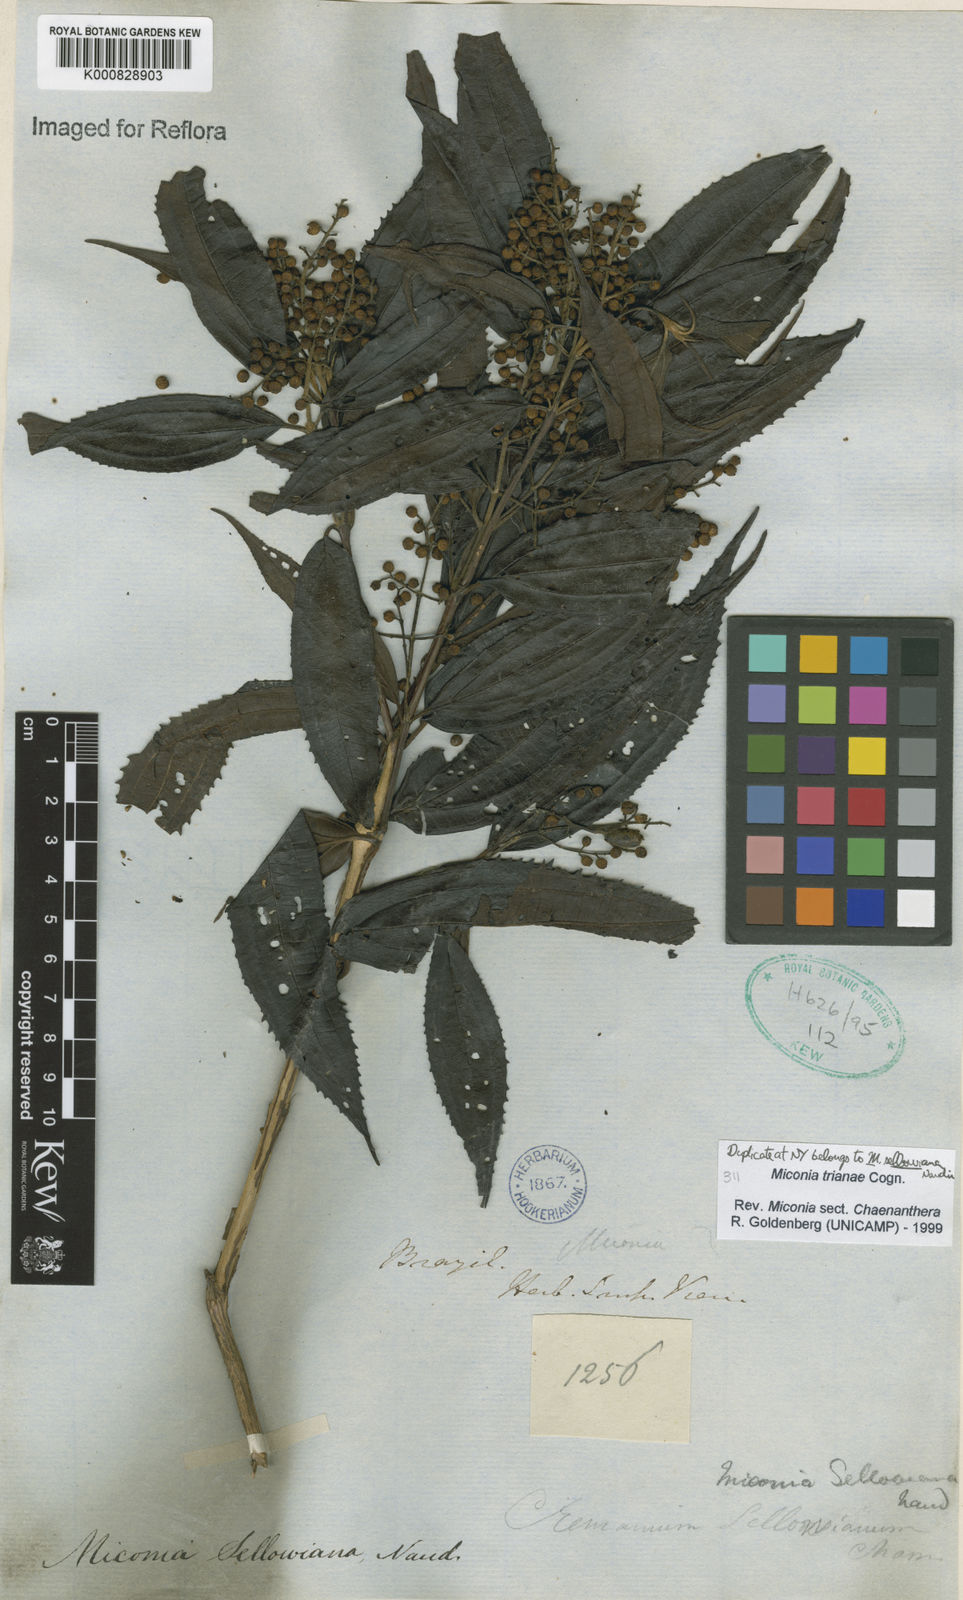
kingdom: Plantae
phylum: Tracheophyta
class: Magnoliopsida
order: Myrtales
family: Melastomataceae
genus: Miconia
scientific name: Miconia trianae
